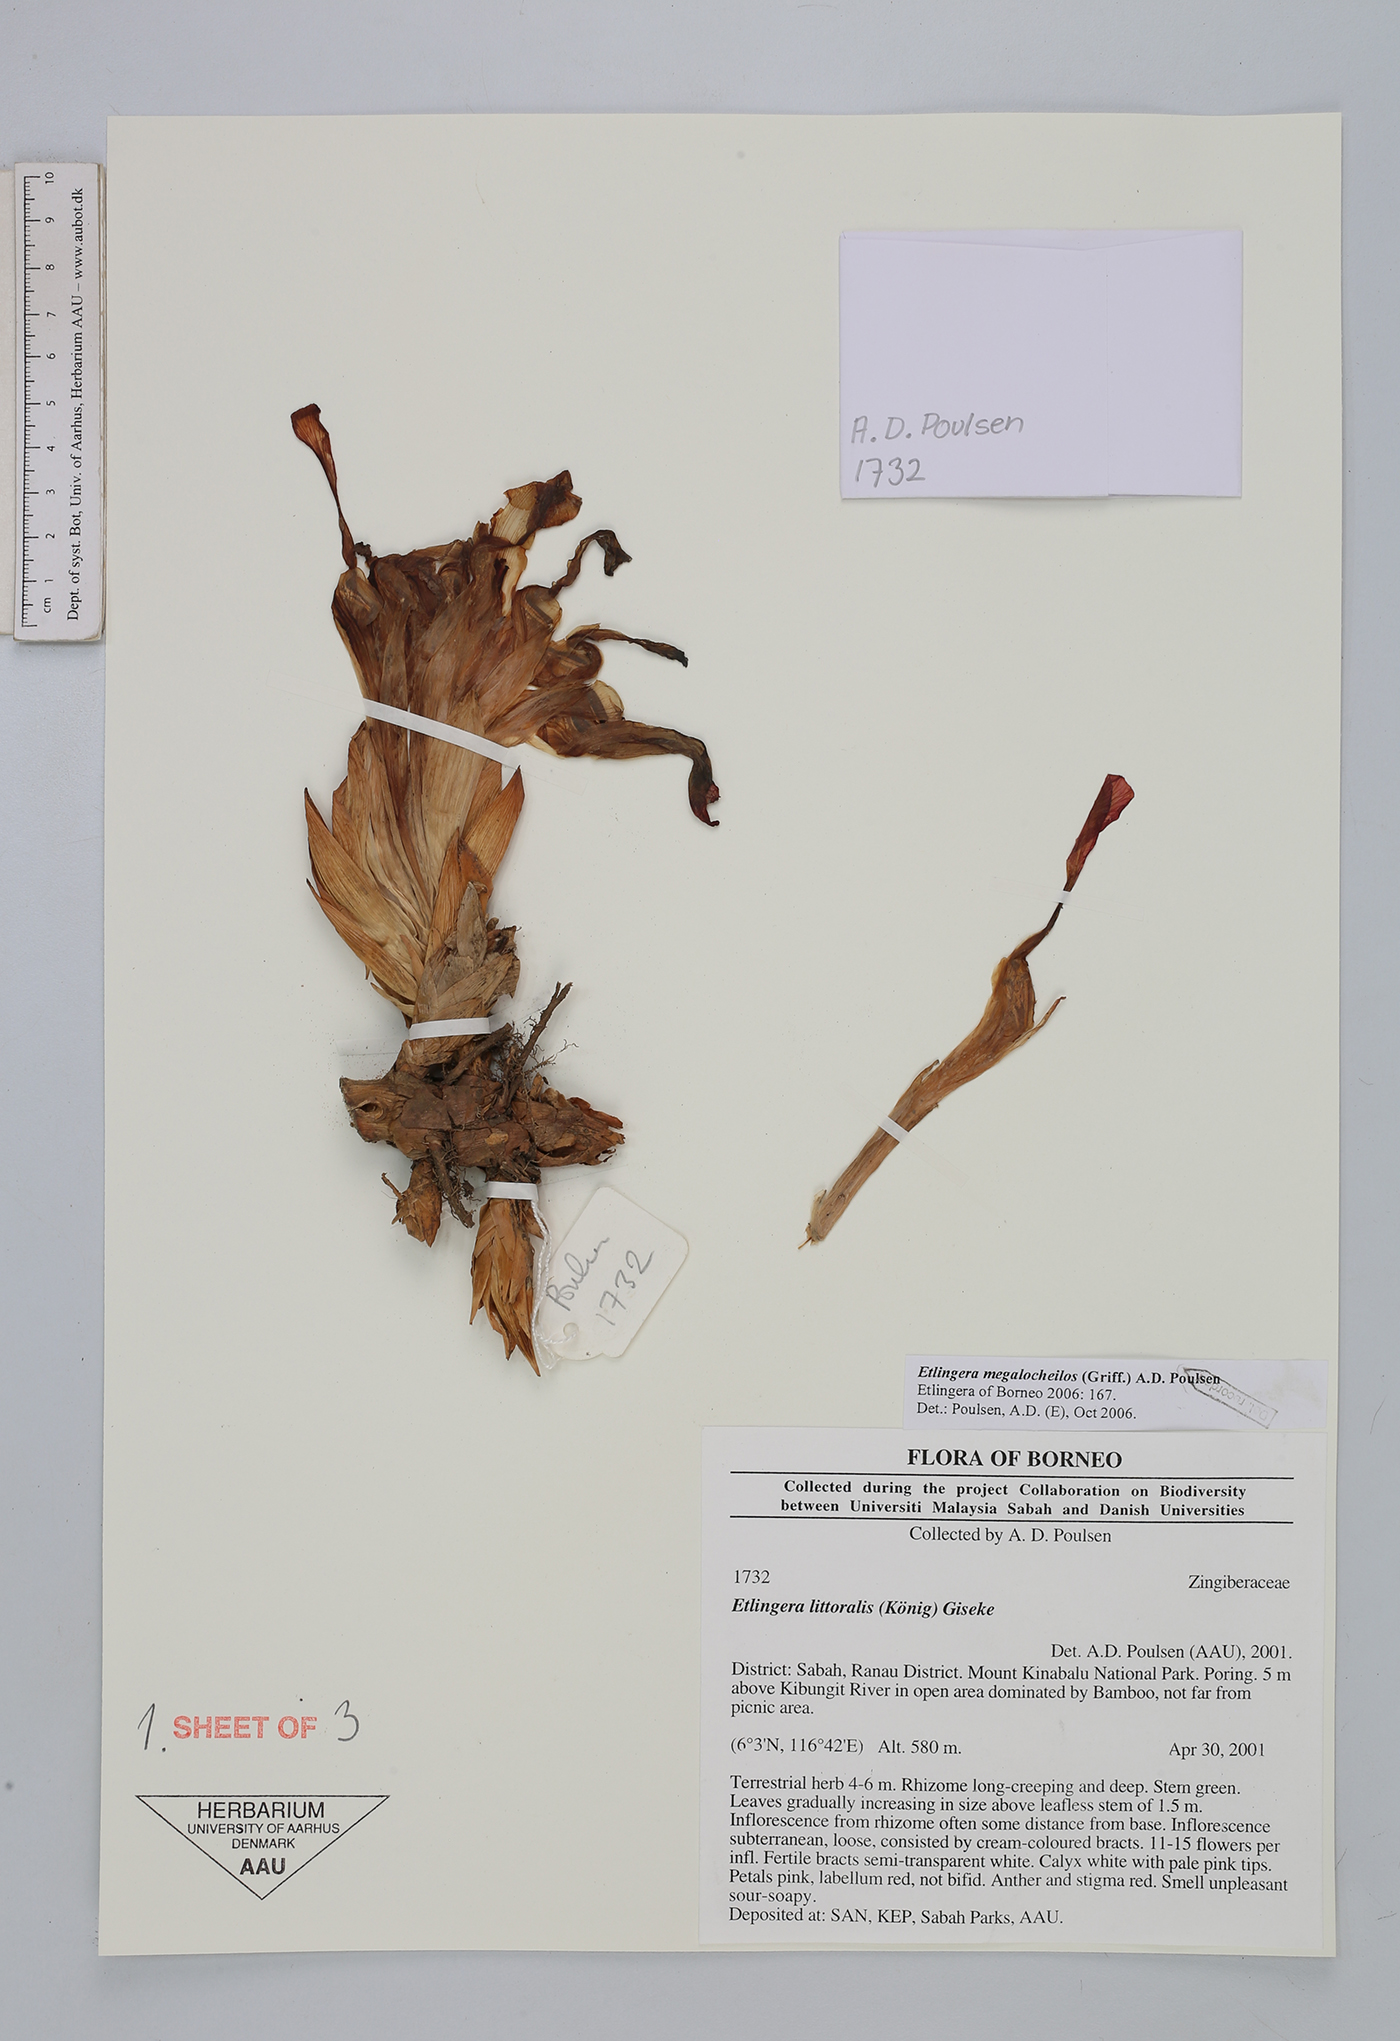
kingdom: Plantae
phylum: Tracheophyta
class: Liliopsida
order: Zingiberales
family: Zingiberaceae
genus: Etlingera
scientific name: Etlingera megalocheilos
